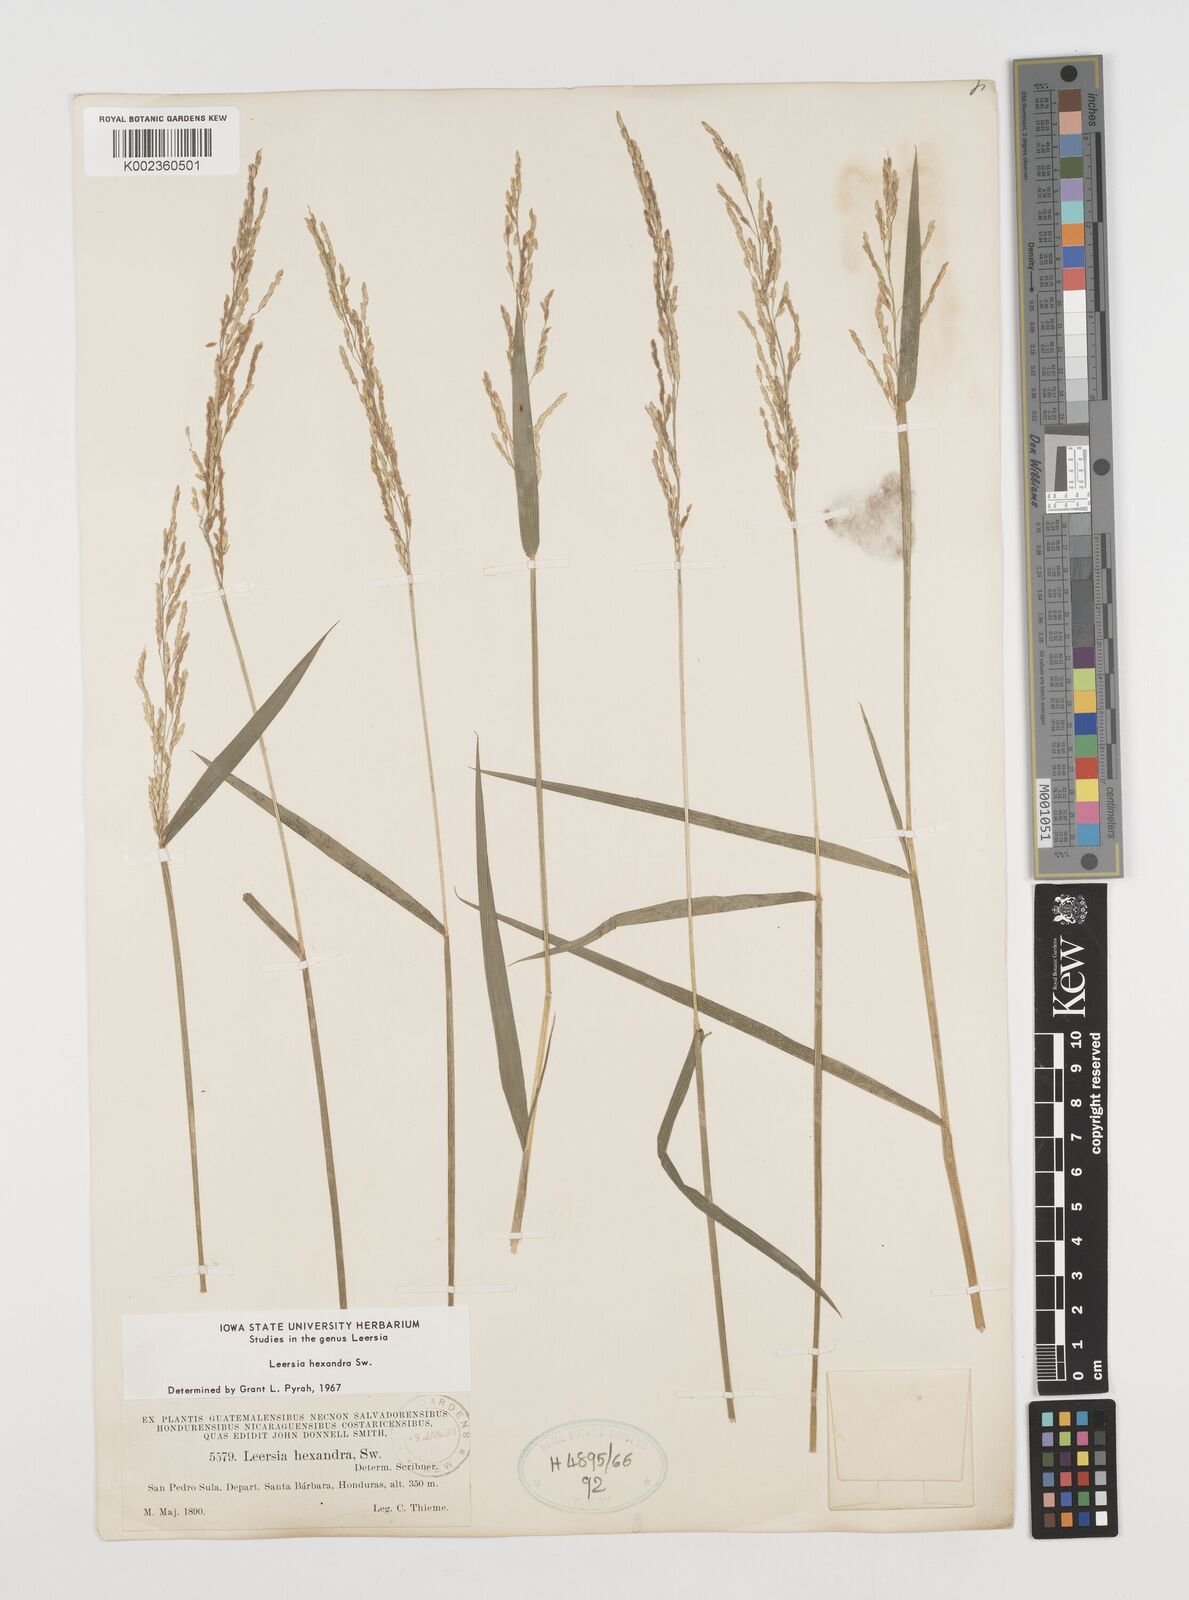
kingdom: Plantae
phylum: Tracheophyta
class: Liliopsida
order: Poales
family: Poaceae
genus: Leersia
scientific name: Leersia hexandra
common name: Southern cut grass
